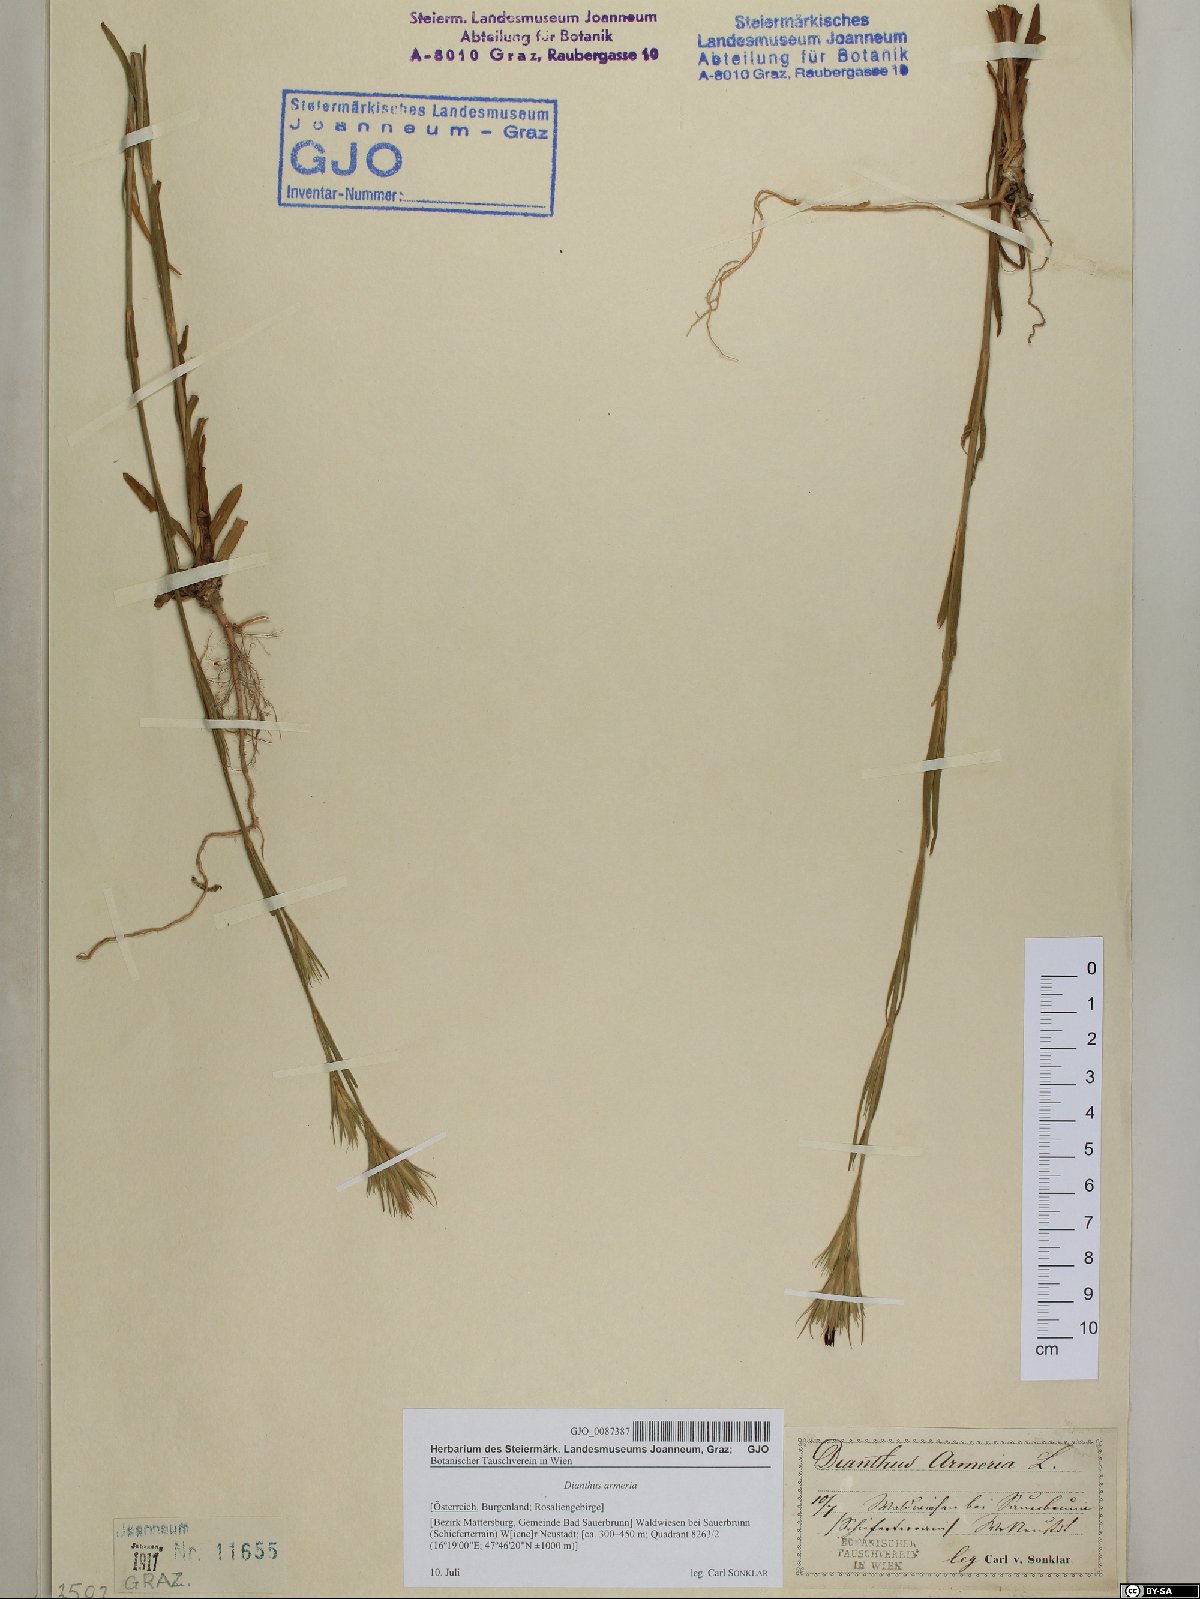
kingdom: Plantae
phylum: Tracheophyta
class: Magnoliopsida
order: Caryophyllales
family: Caryophyllaceae
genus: Dianthus
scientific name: Dianthus armeria
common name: Deptford pink
